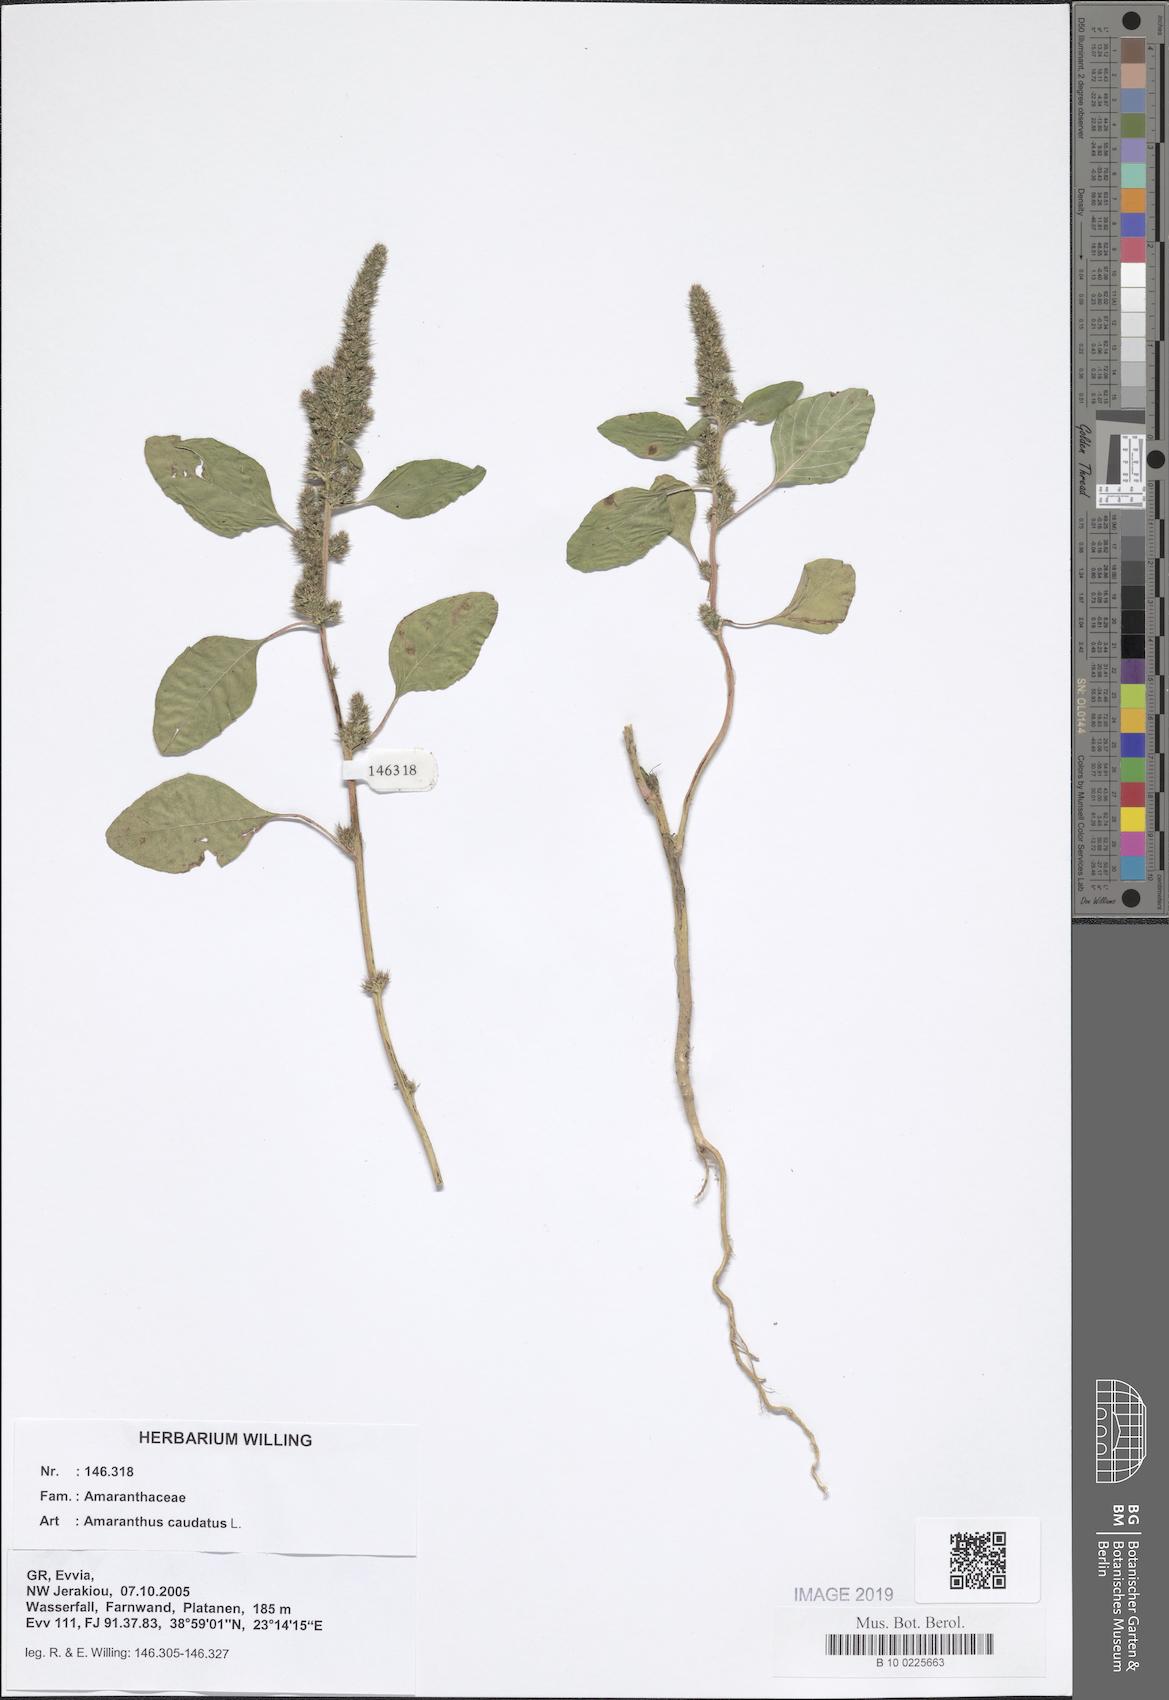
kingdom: Plantae
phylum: Tracheophyta
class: Magnoliopsida
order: Caryophyllales
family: Amaranthaceae
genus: Amaranthus
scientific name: Amaranthus caudatus
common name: Love-lies-bleeding
